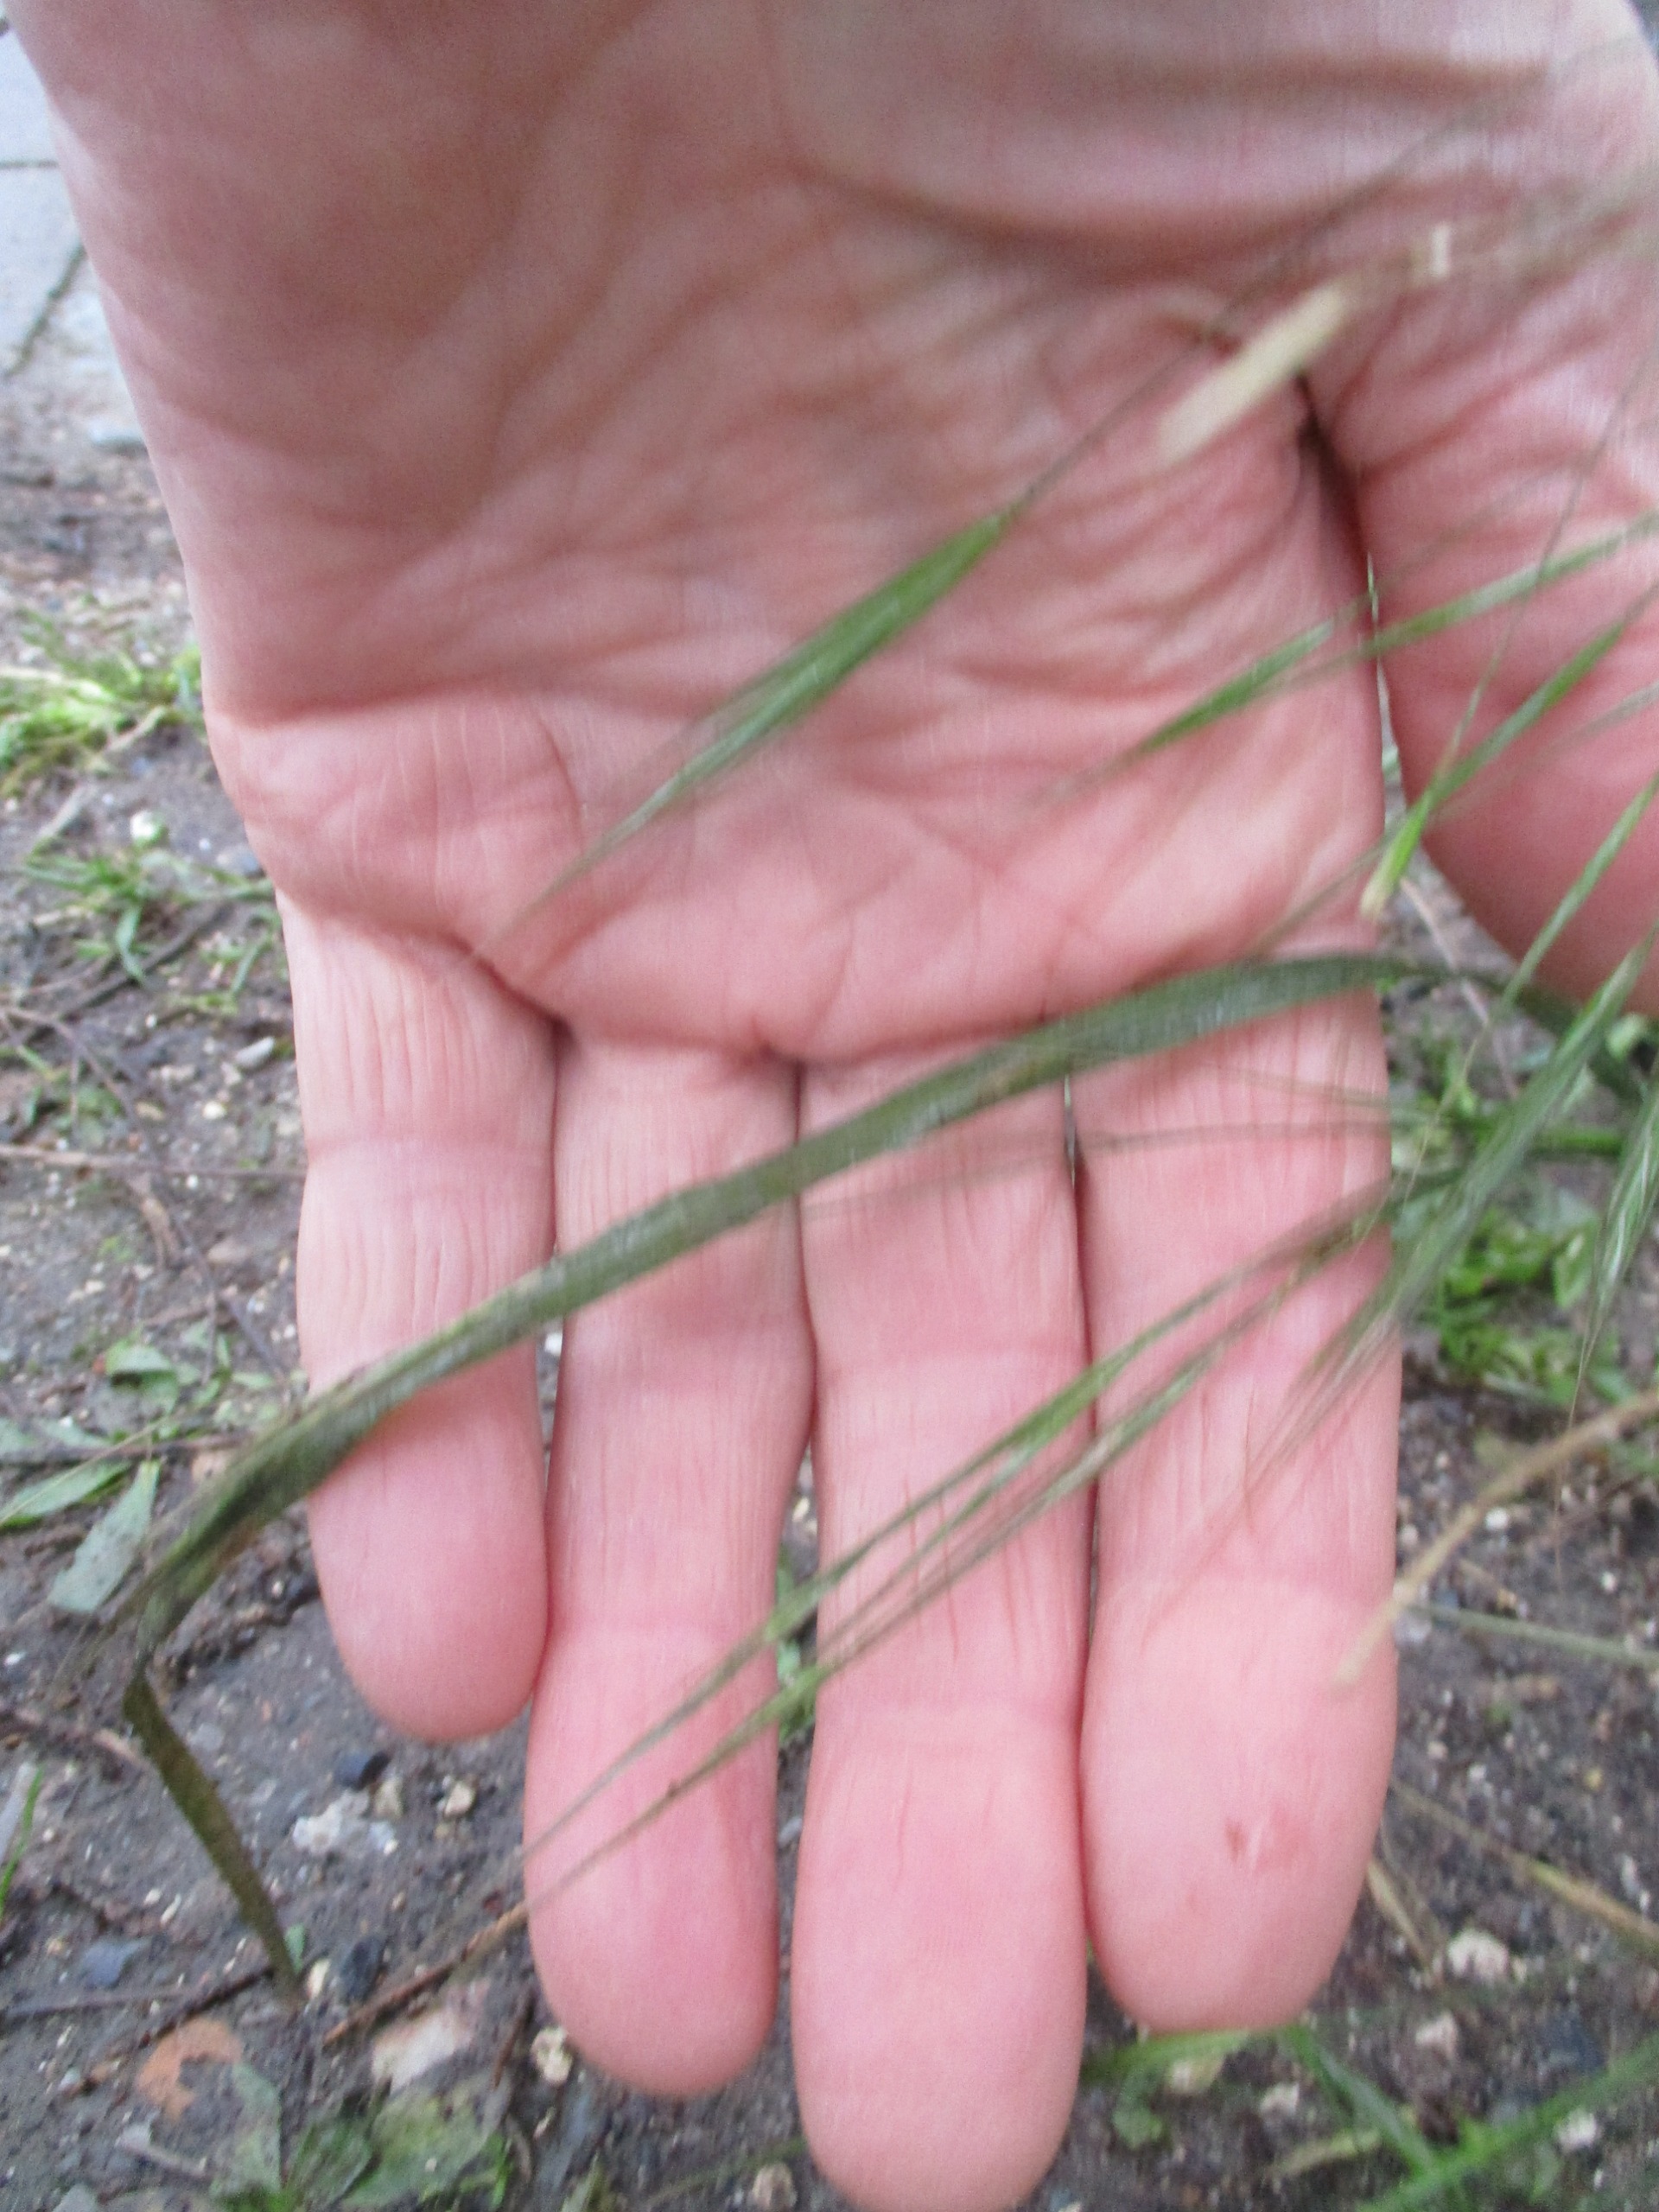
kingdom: Plantae
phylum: Tracheophyta
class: Liliopsida
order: Poales
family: Poaceae
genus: Bromus
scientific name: Bromus sterilis
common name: Gold hejre
